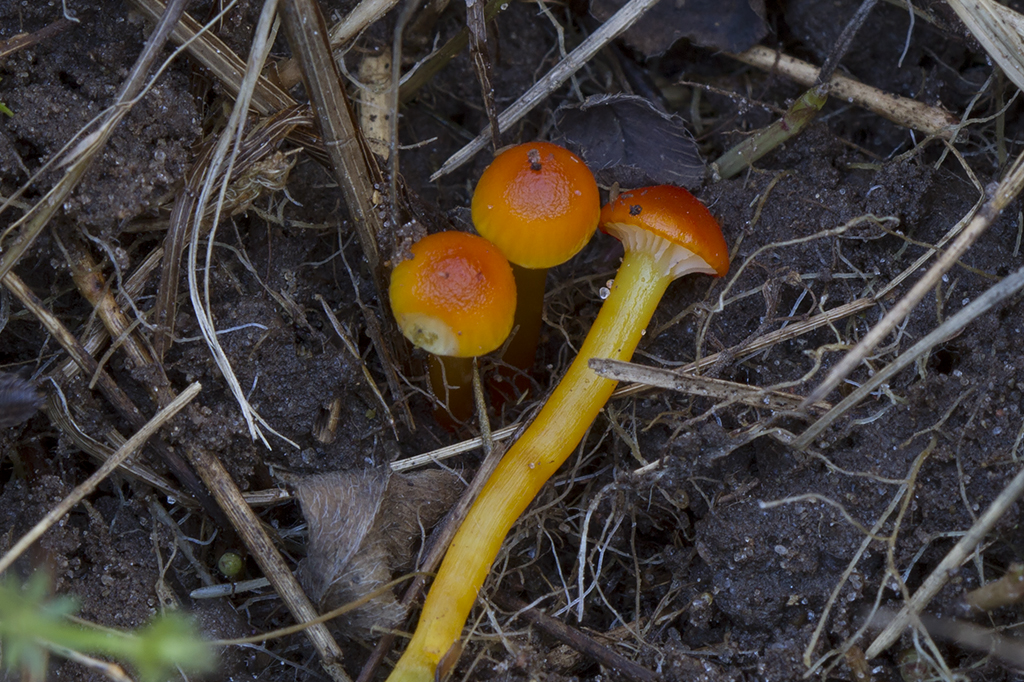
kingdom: Fungi
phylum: Basidiomycota
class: Agaricomycetes
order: Agaricales
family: Hygrophoraceae
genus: Hygrocybe
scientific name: Hygrocybe insipida
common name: liden vokshat
